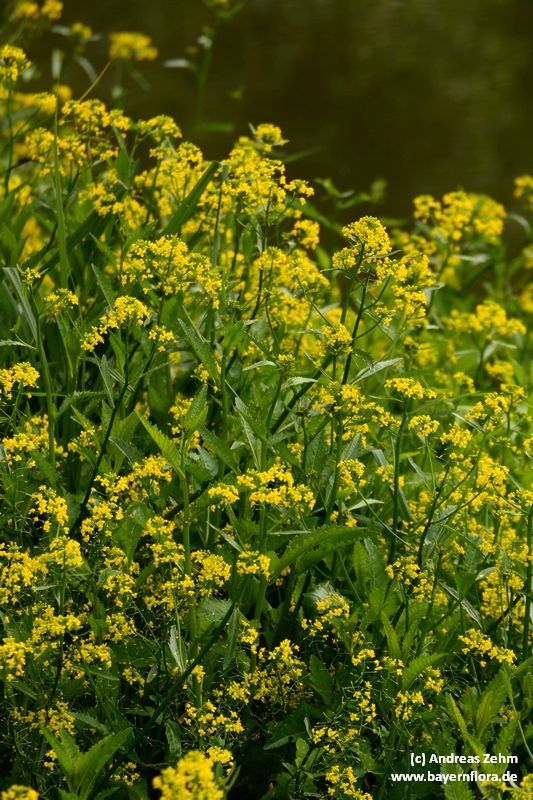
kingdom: Plantae
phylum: Tracheophyta
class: Magnoliopsida
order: Brassicales
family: Brassicaceae
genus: Rorippa
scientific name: Rorippa amphibia
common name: Great yellow-cress
